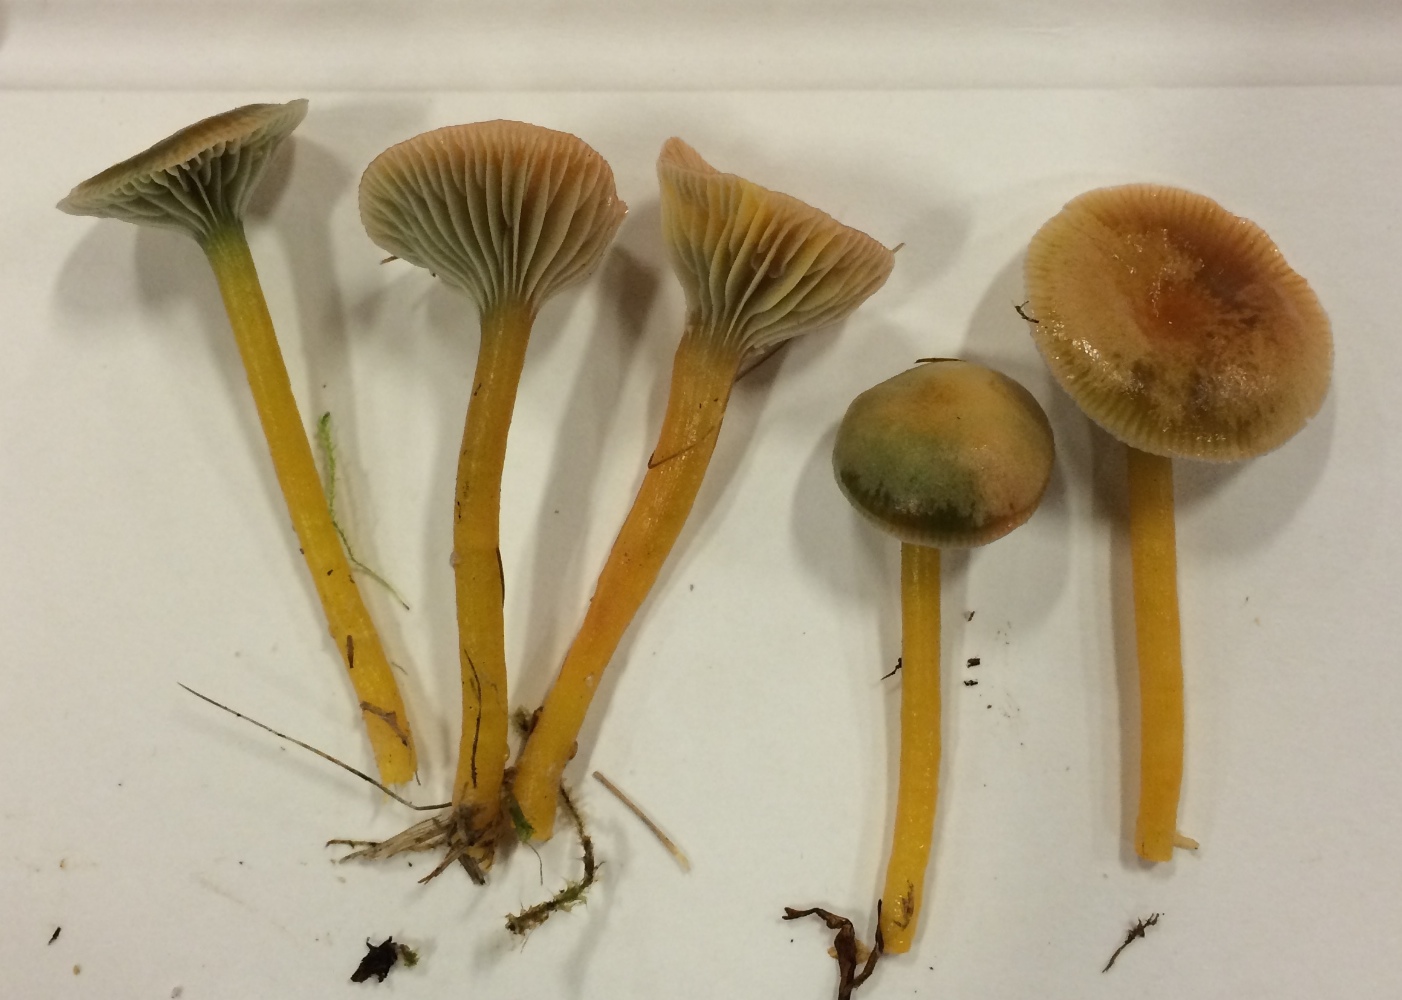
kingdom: Fungi
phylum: Basidiomycota
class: Agaricomycetes
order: Agaricales
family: Hygrophoraceae
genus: Gliophorus
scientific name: Gliophorus laetus
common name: brusk-vokshat
